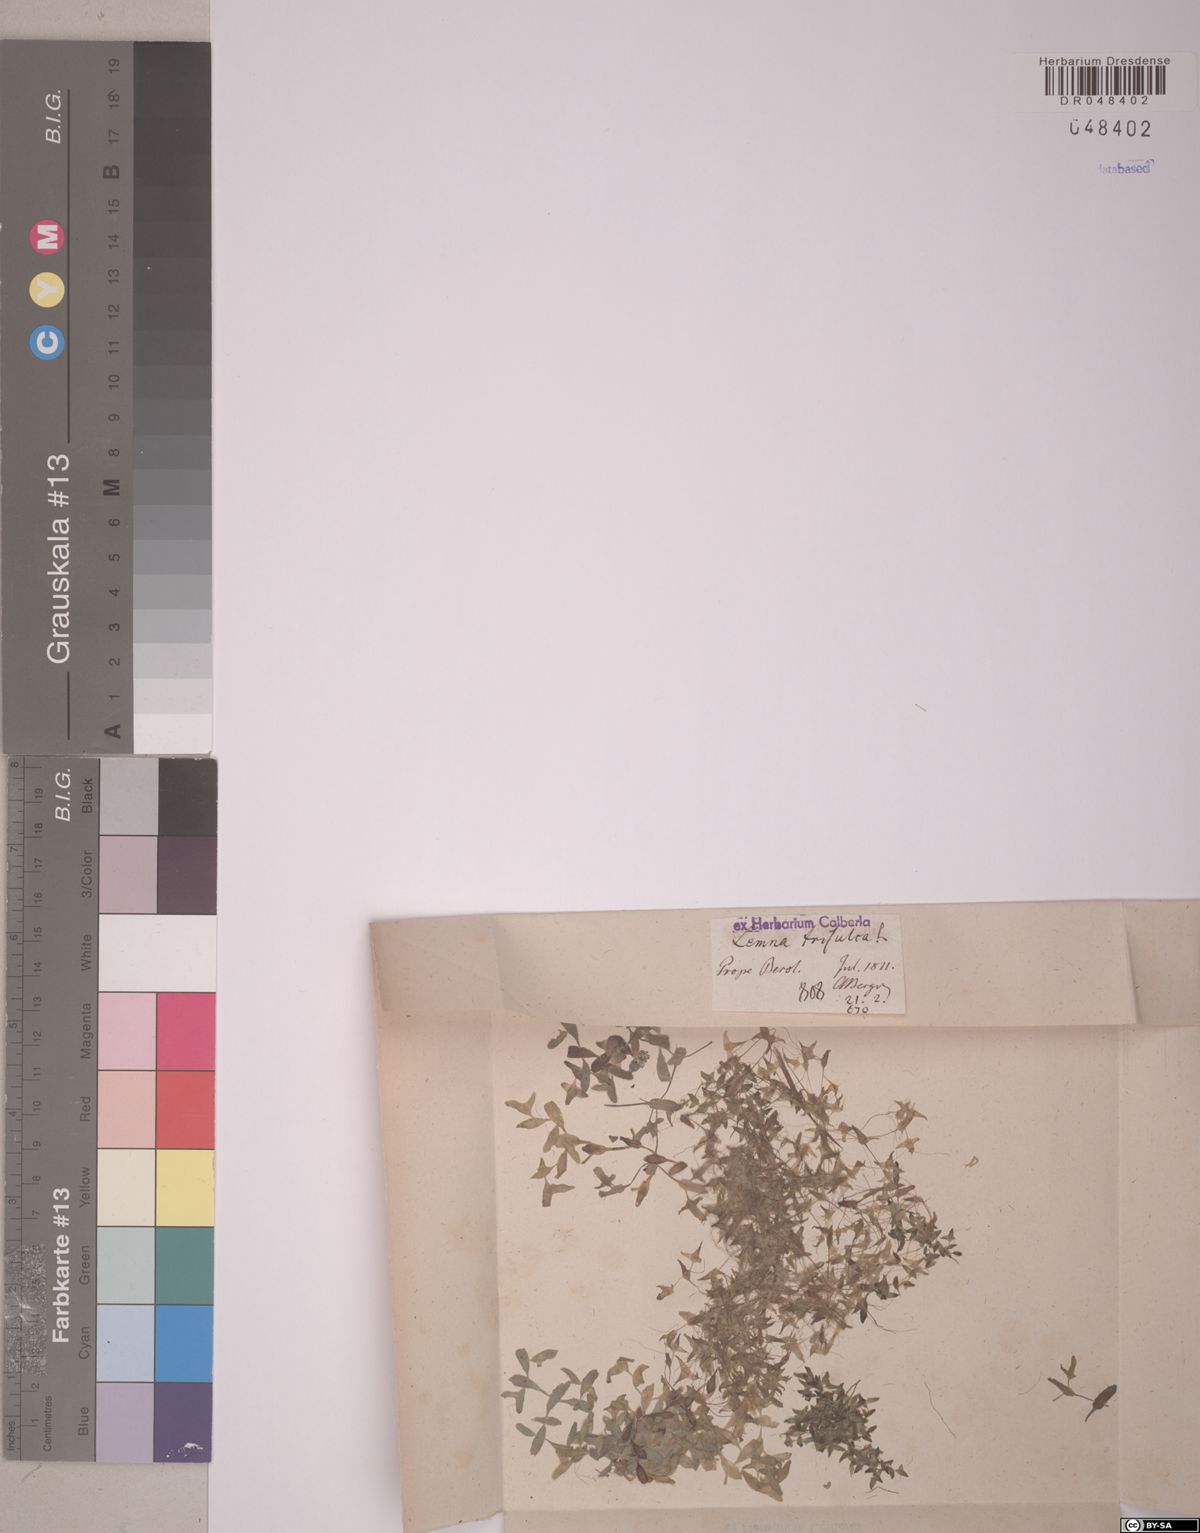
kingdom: Plantae
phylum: Tracheophyta
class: Liliopsida
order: Alismatales
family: Araceae
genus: Lemna
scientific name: Lemna trisulca
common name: Ivy-leaved duckweed
